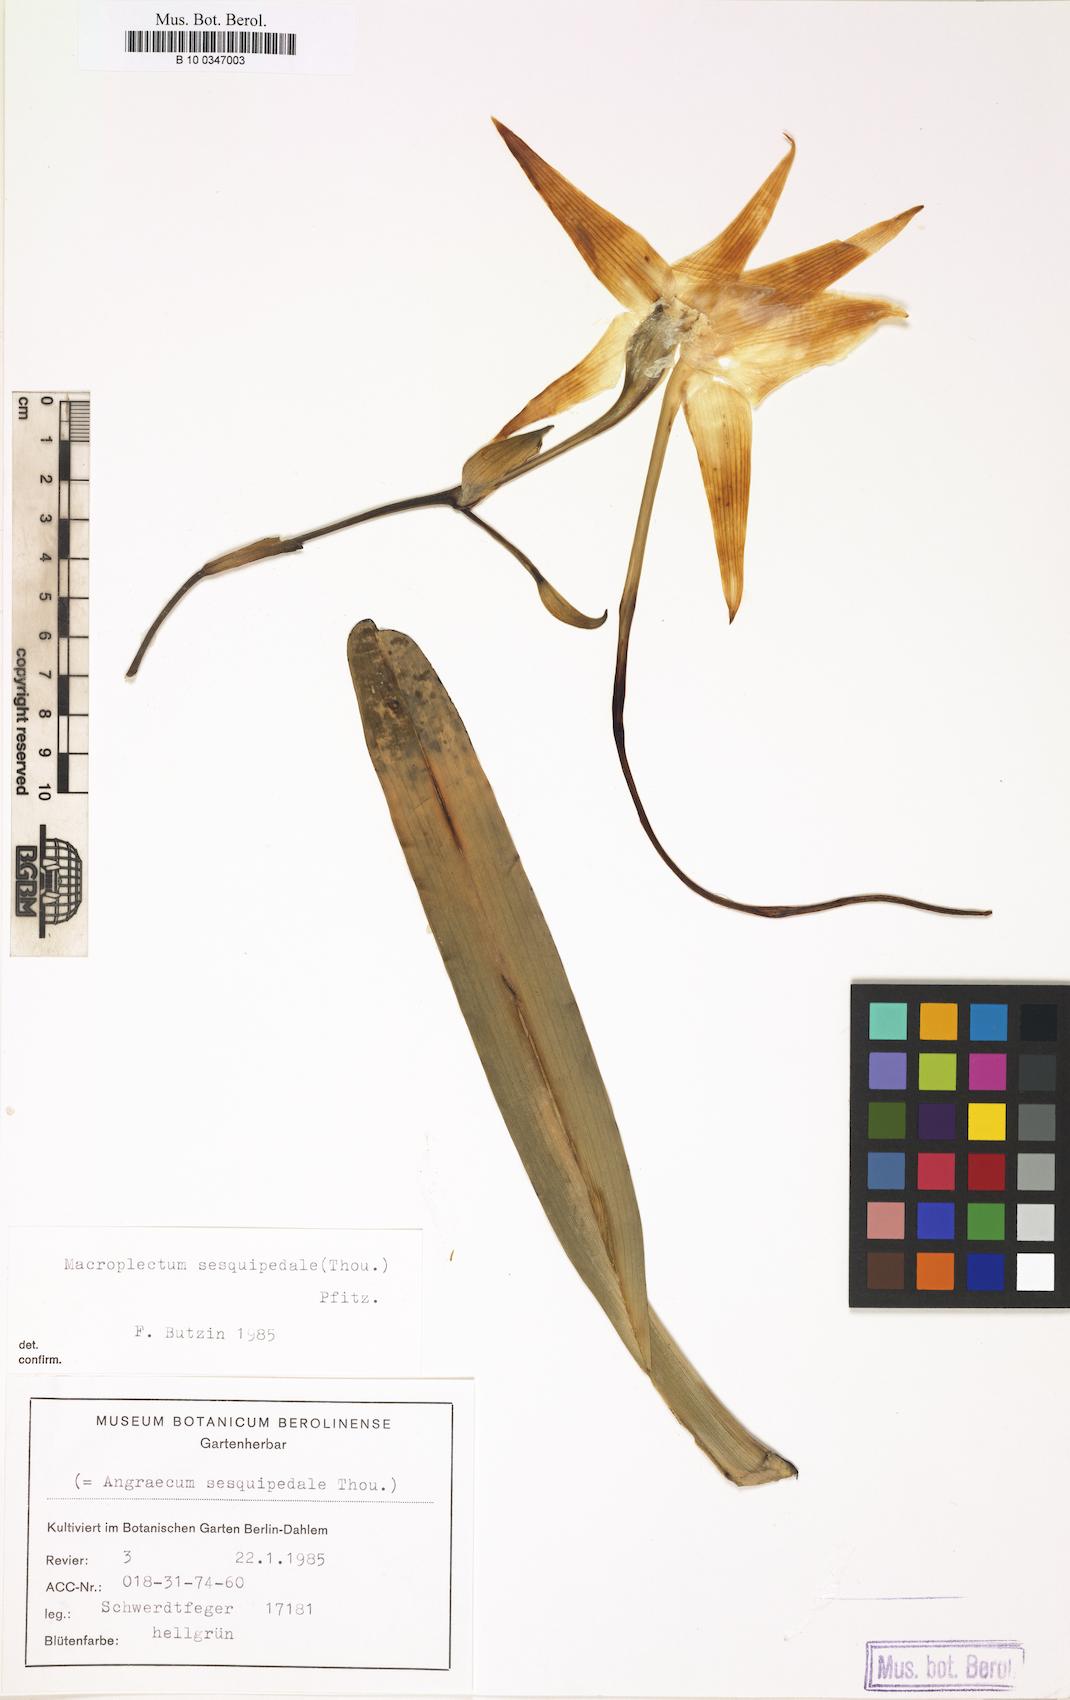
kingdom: Plantae
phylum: Tracheophyta
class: Liliopsida
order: Asparagales
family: Orchidaceae
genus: Angraecum
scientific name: Angraecum sesquipedale
